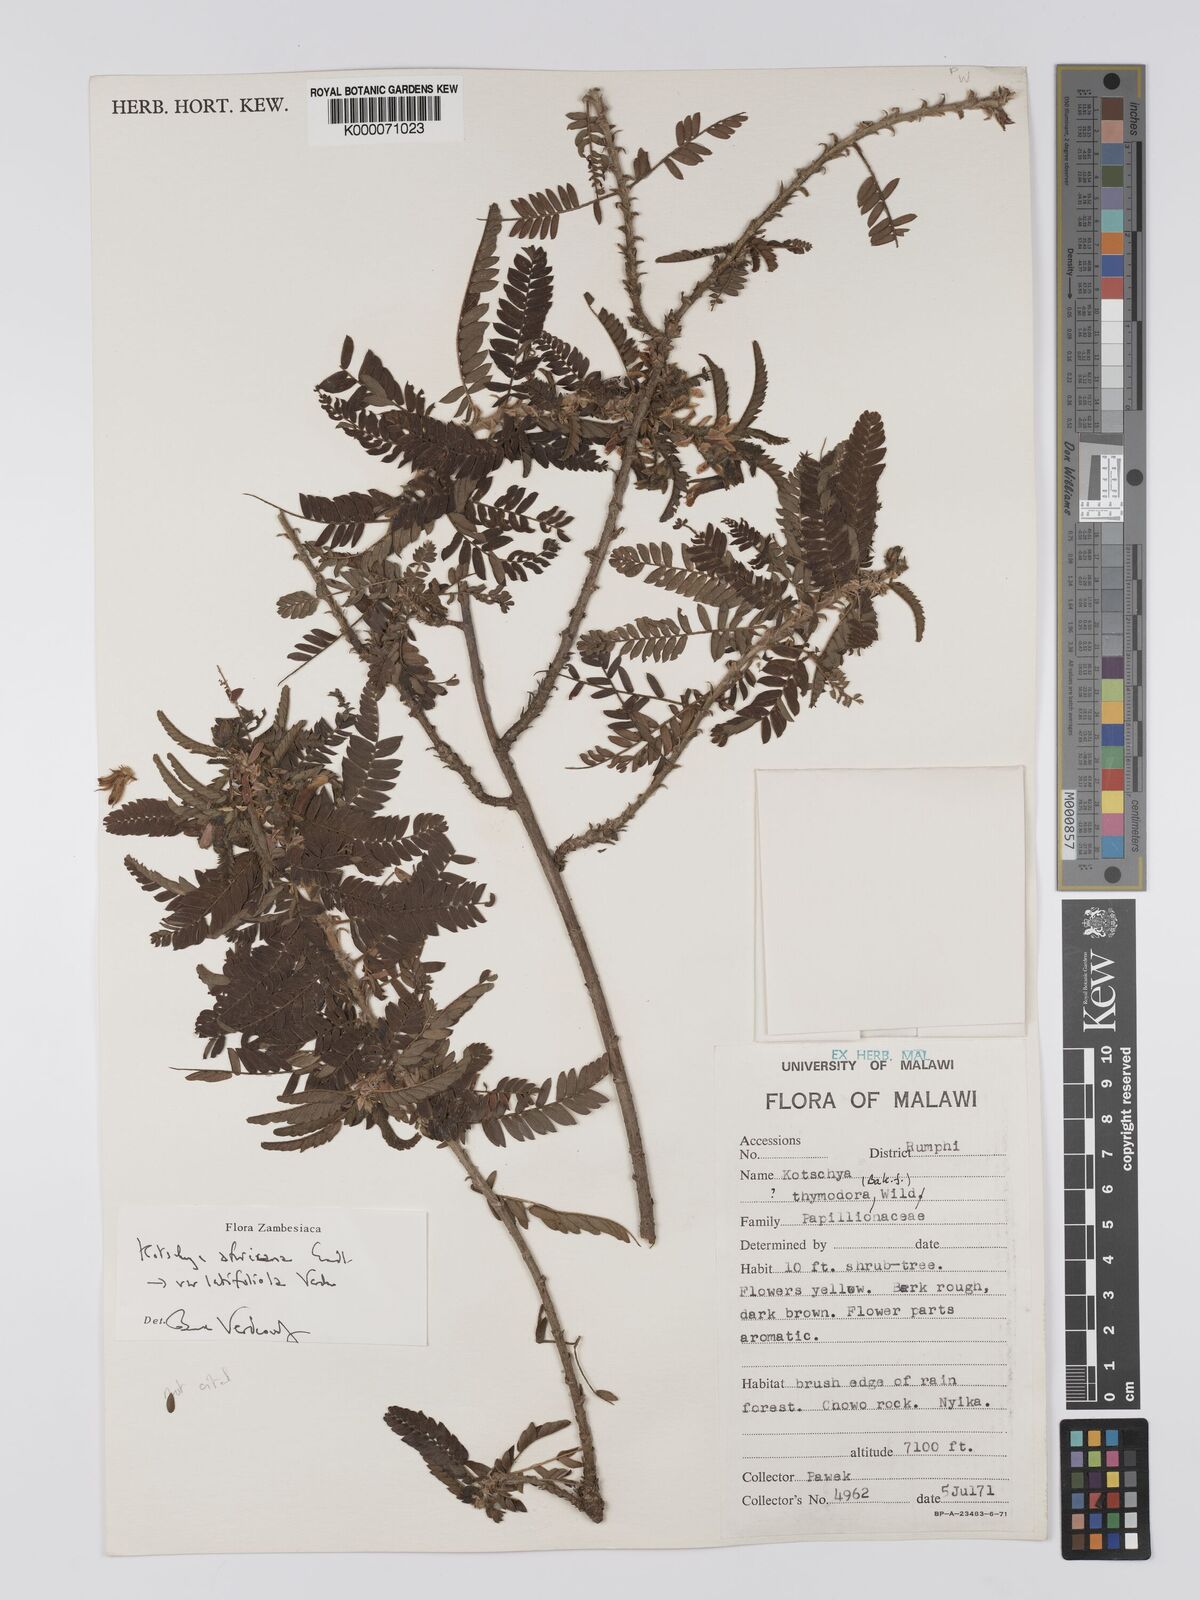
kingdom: Plantae
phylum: Tracheophyta
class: Magnoliopsida
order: Fabales
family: Fabaceae
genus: Kotschya
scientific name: Kotschya africana
